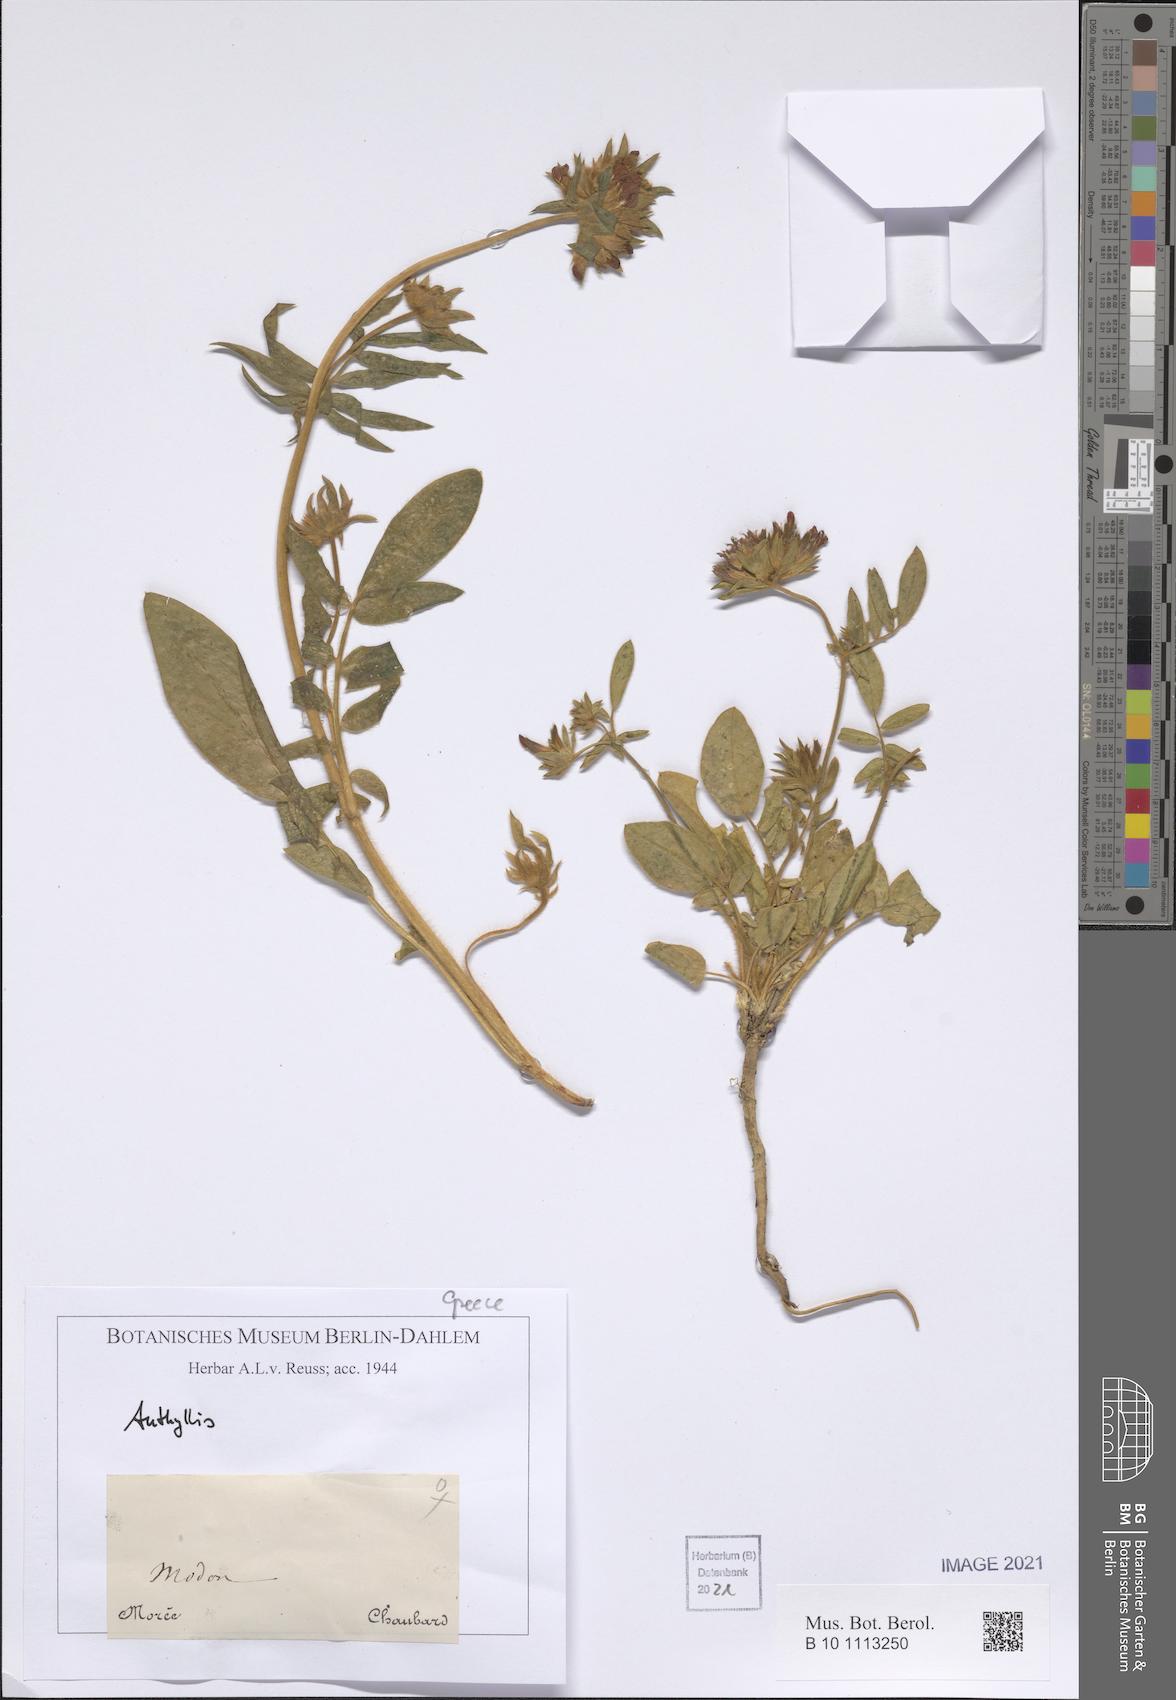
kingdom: Plantae
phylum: Tracheophyta
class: Magnoliopsida
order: Fabales
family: Fabaceae
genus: Anthyllis
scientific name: Anthyllis
